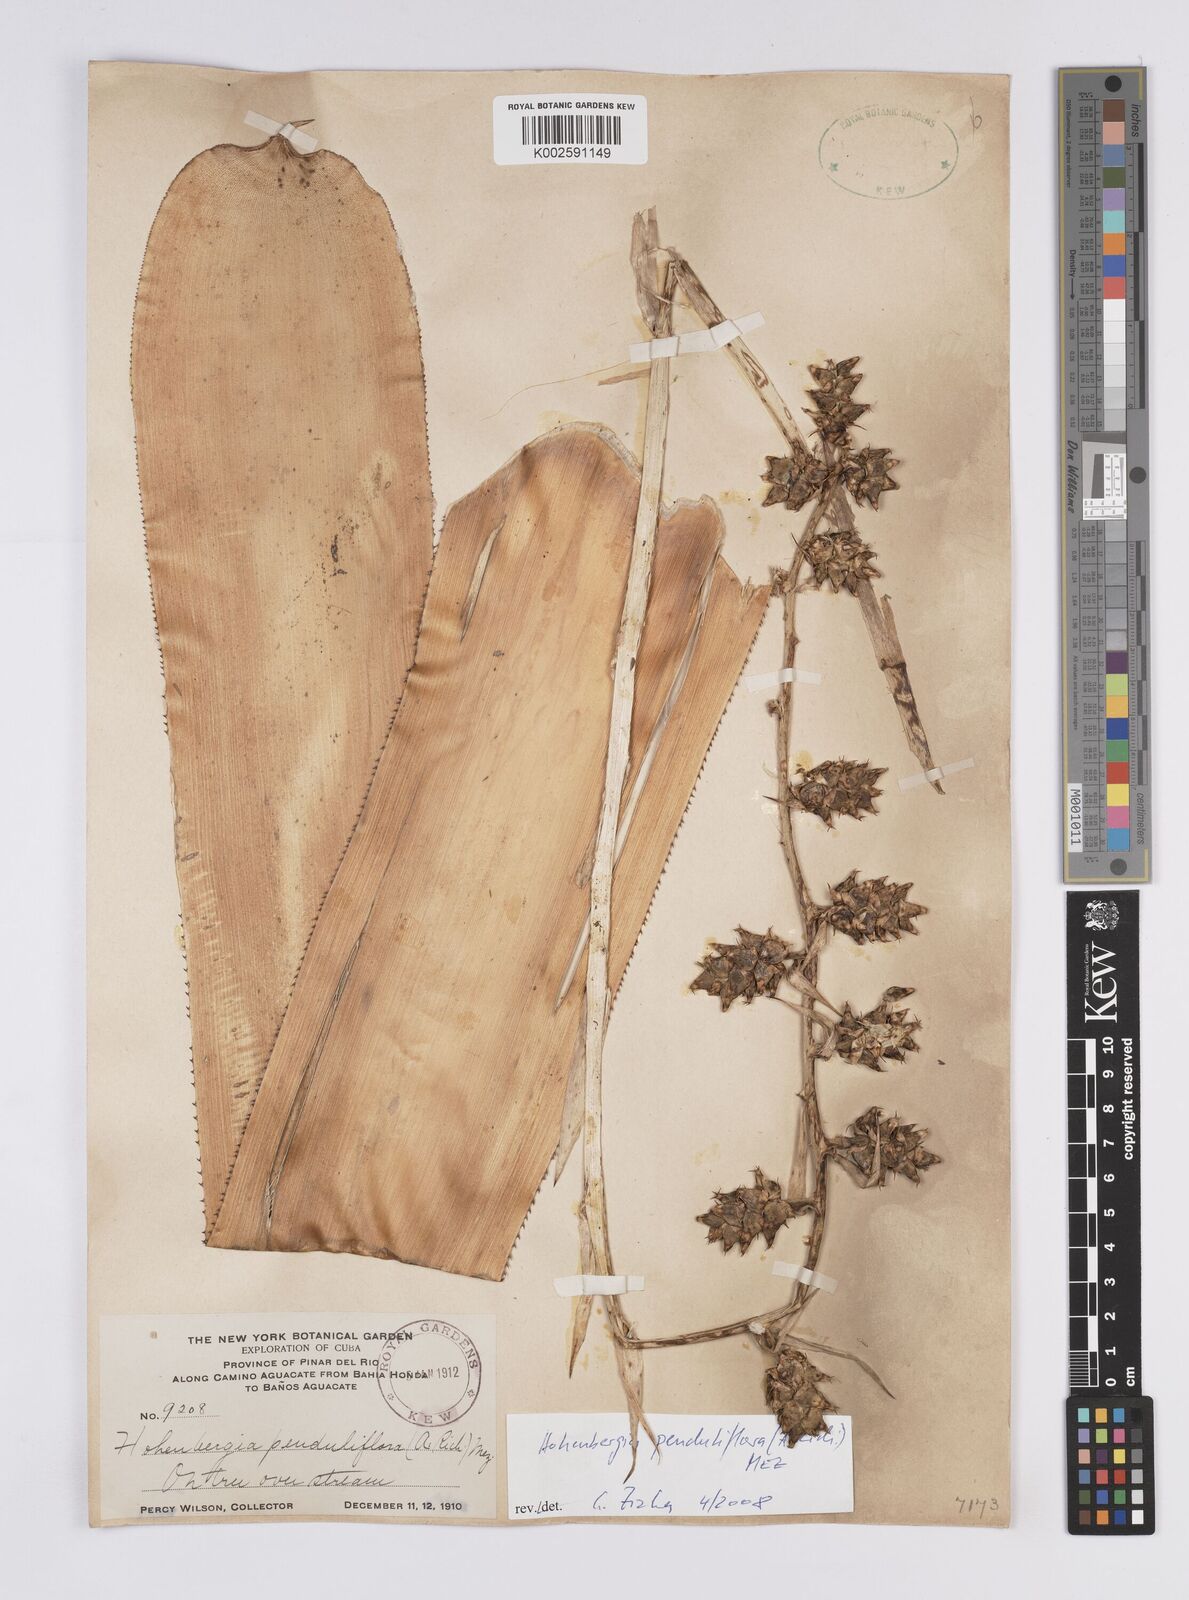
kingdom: Plantae
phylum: Tracheophyta
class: Liliopsida
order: Poales
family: Bromeliaceae
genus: Wittmackia
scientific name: Wittmackia penduliflora
